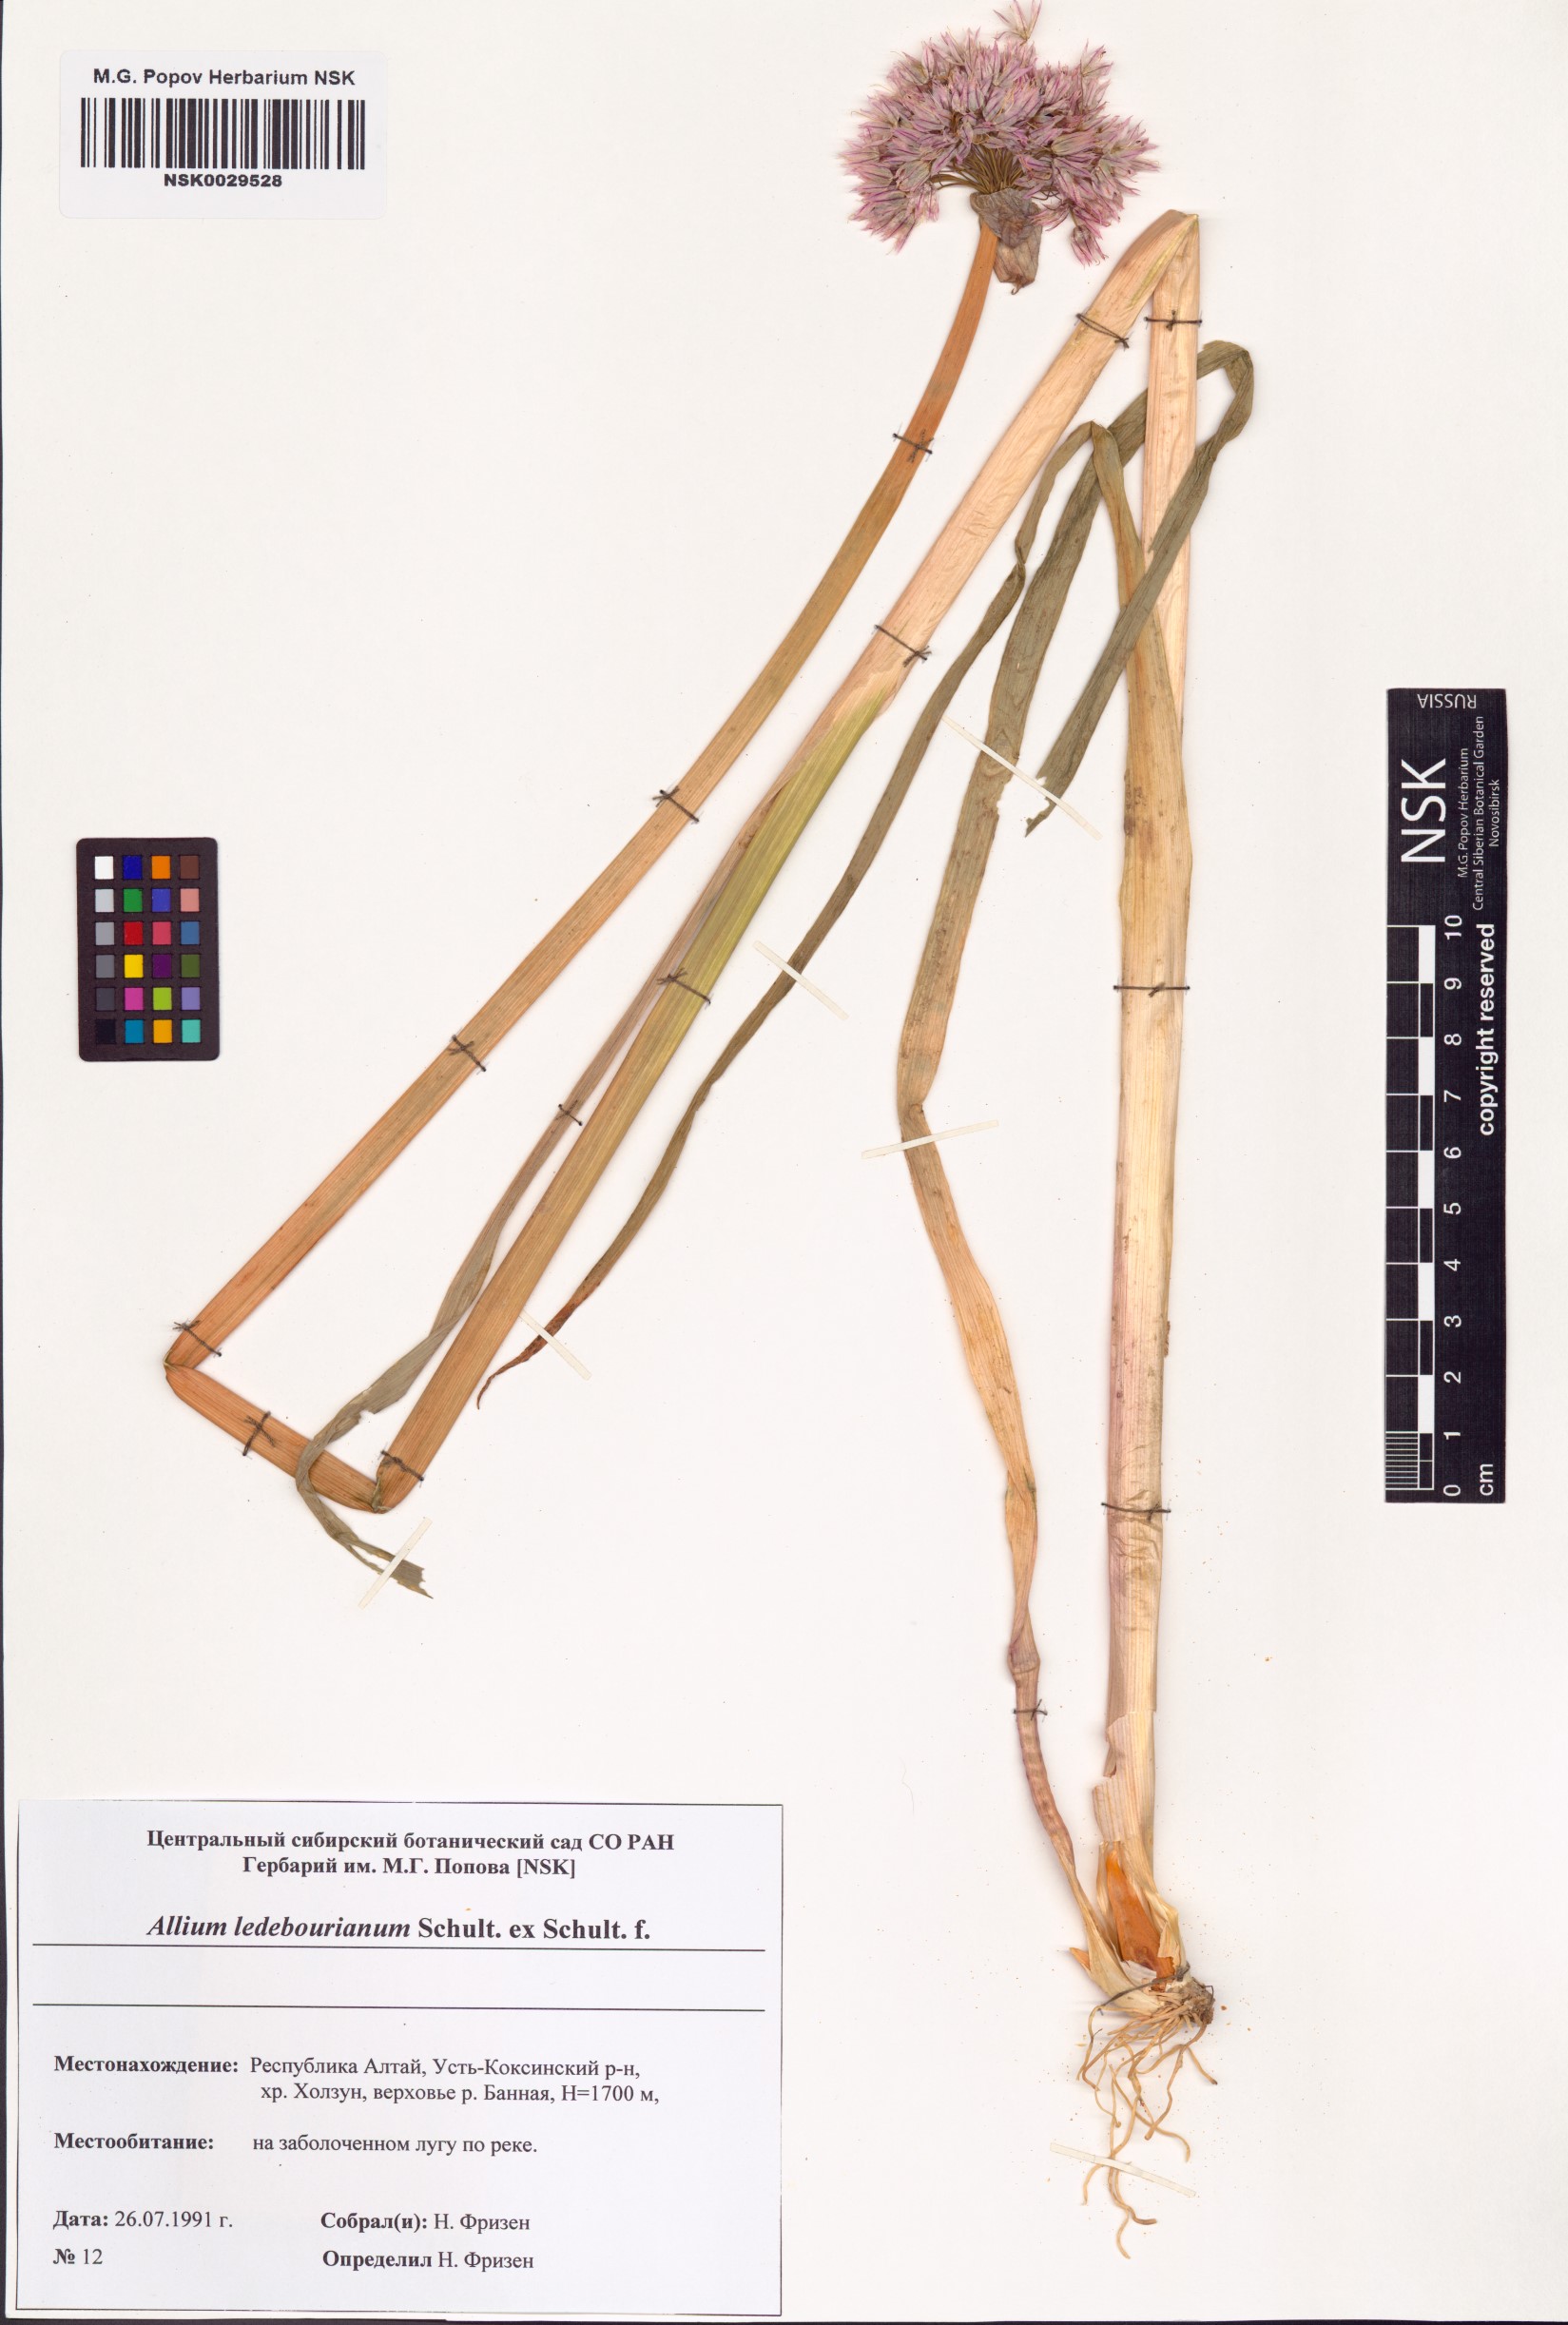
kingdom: Plantae
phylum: Tracheophyta
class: Liliopsida
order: Asparagales
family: Amaryllidaceae
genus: Allium
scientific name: Allium ledebourianum
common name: Ledebour chive
